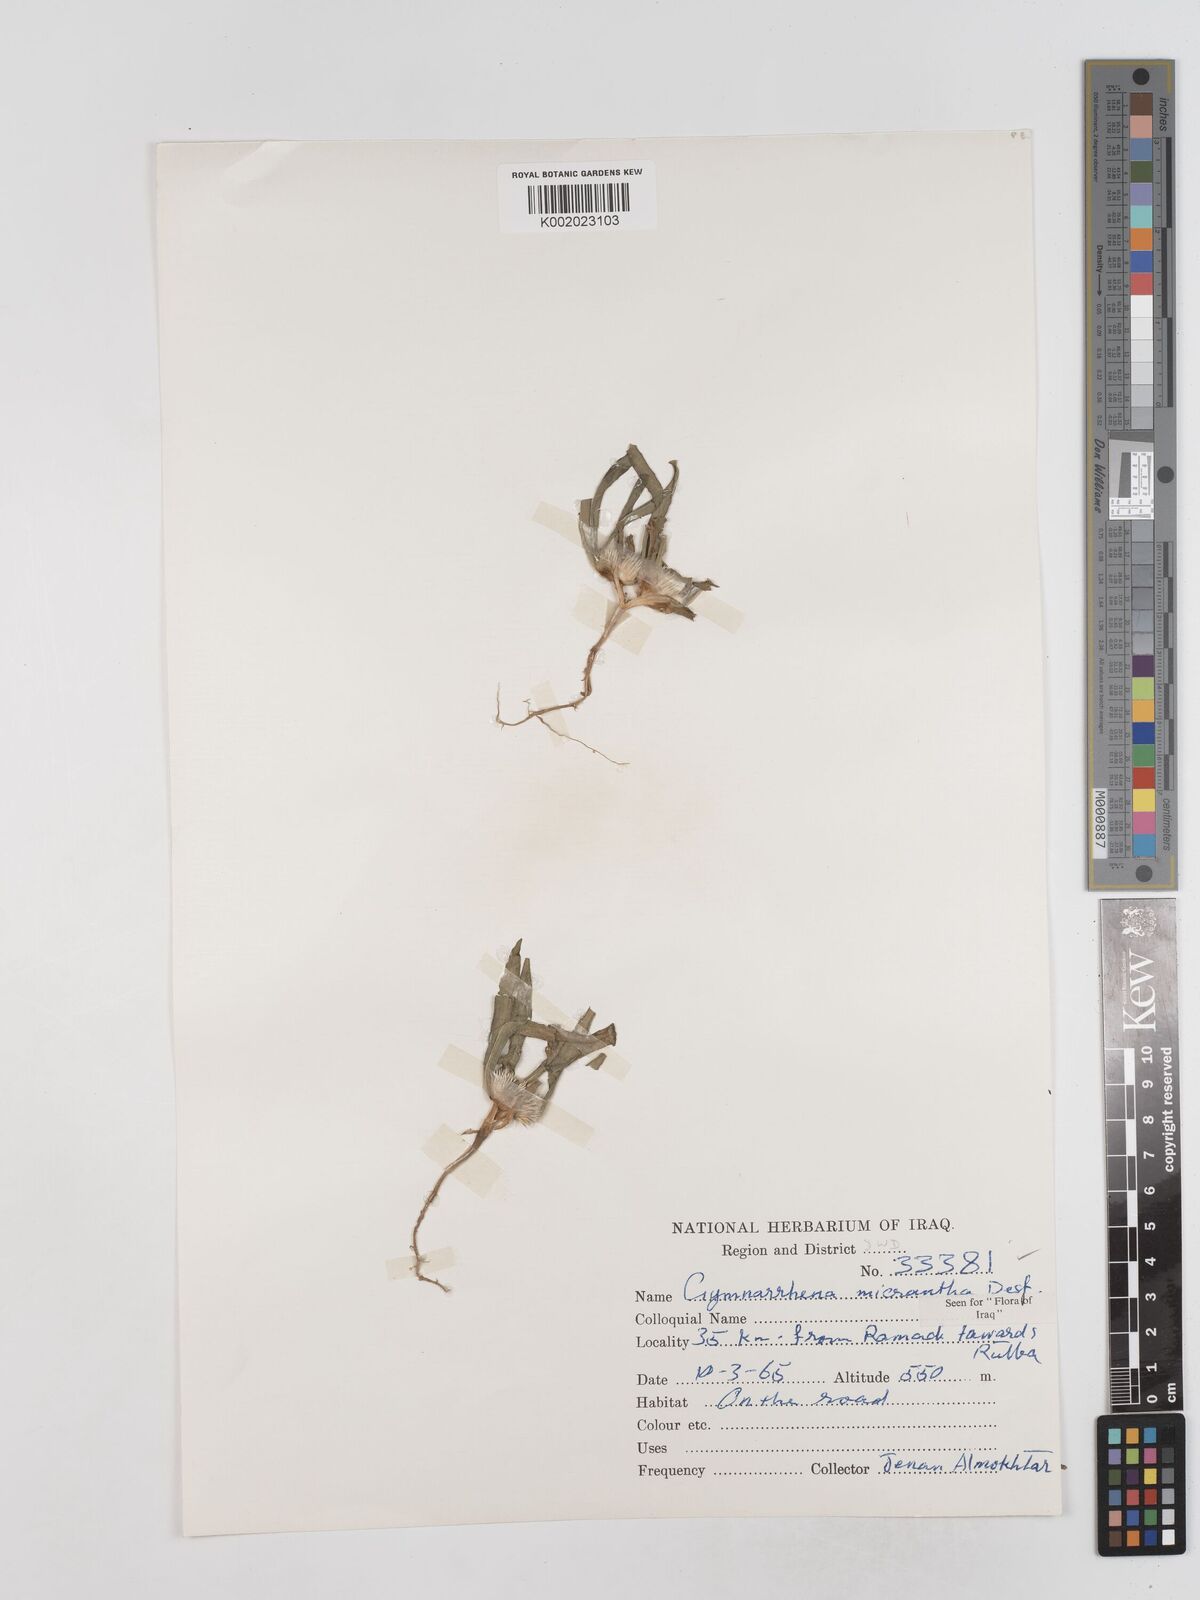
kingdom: Plantae
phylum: Tracheophyta
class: Magnoliopsida
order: Asterales
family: Asteraceae
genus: Gymnarrhena
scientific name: Gymnarrhena micrantha
